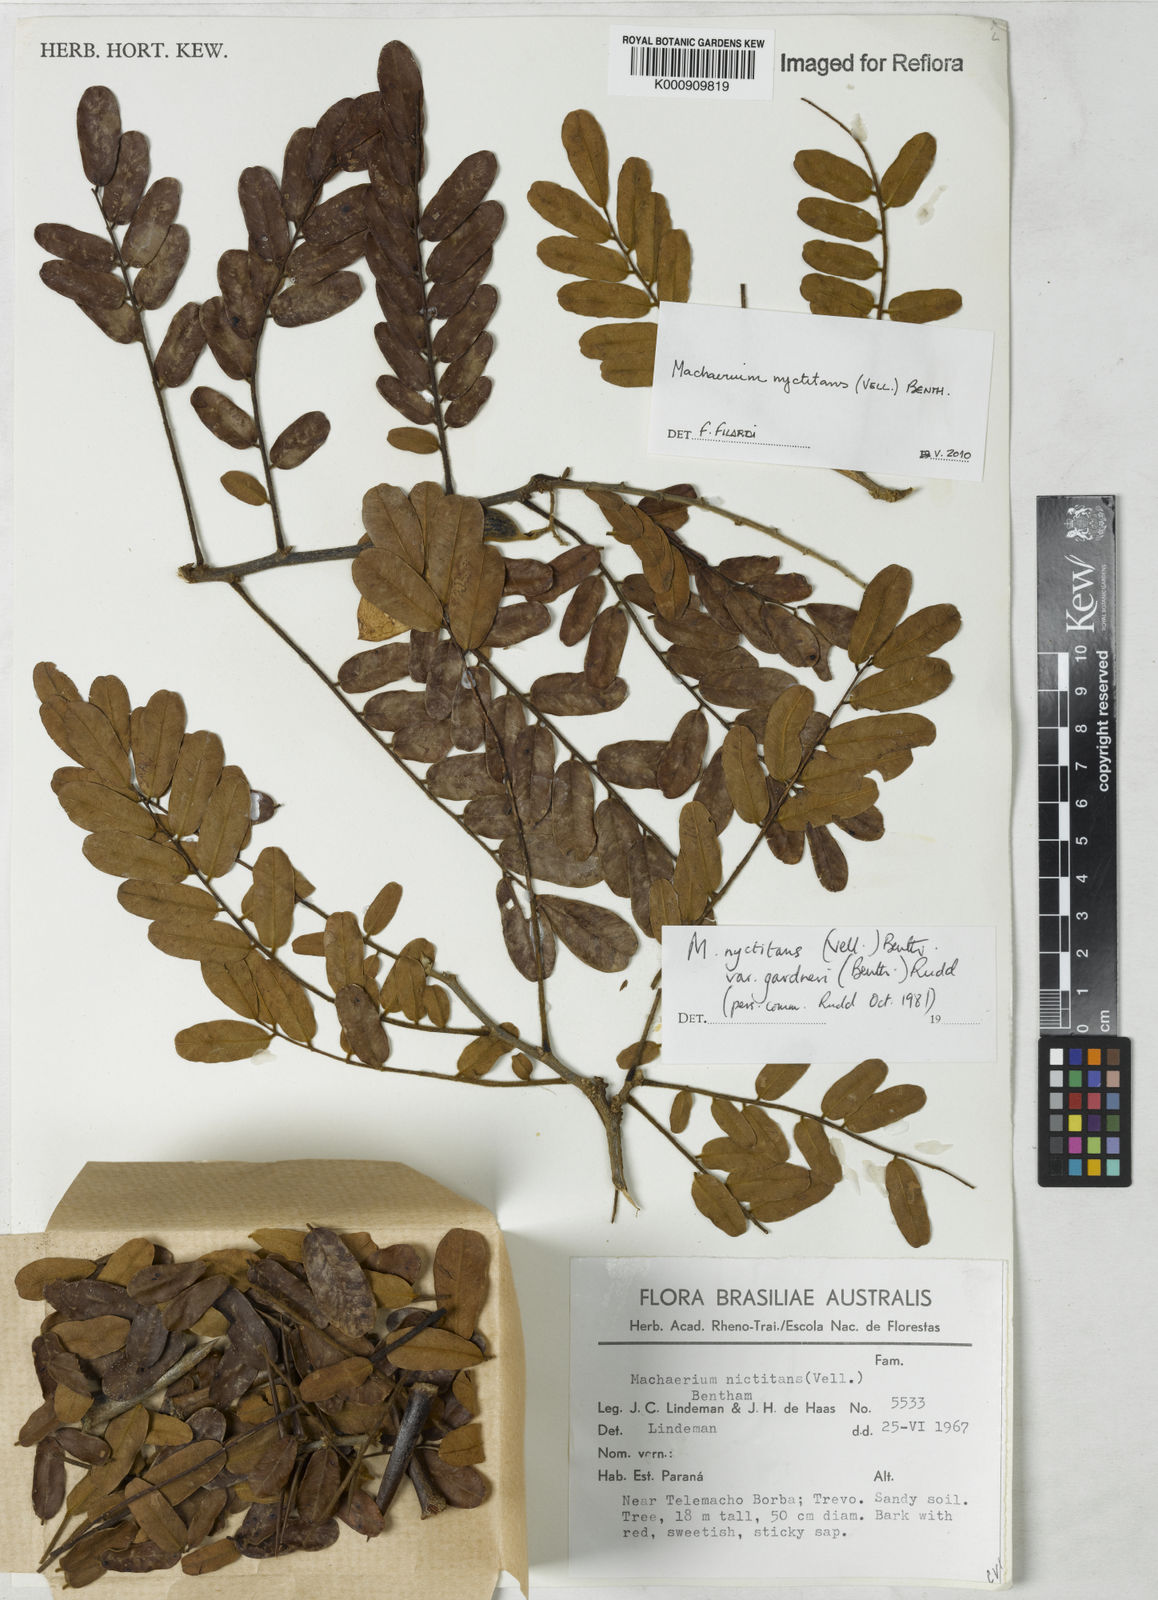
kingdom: Plantae
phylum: Tracheophyta
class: Magnoliopsida
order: Fabales
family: Fabaceae
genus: Machaerium
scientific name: Machaerium nyctitans
